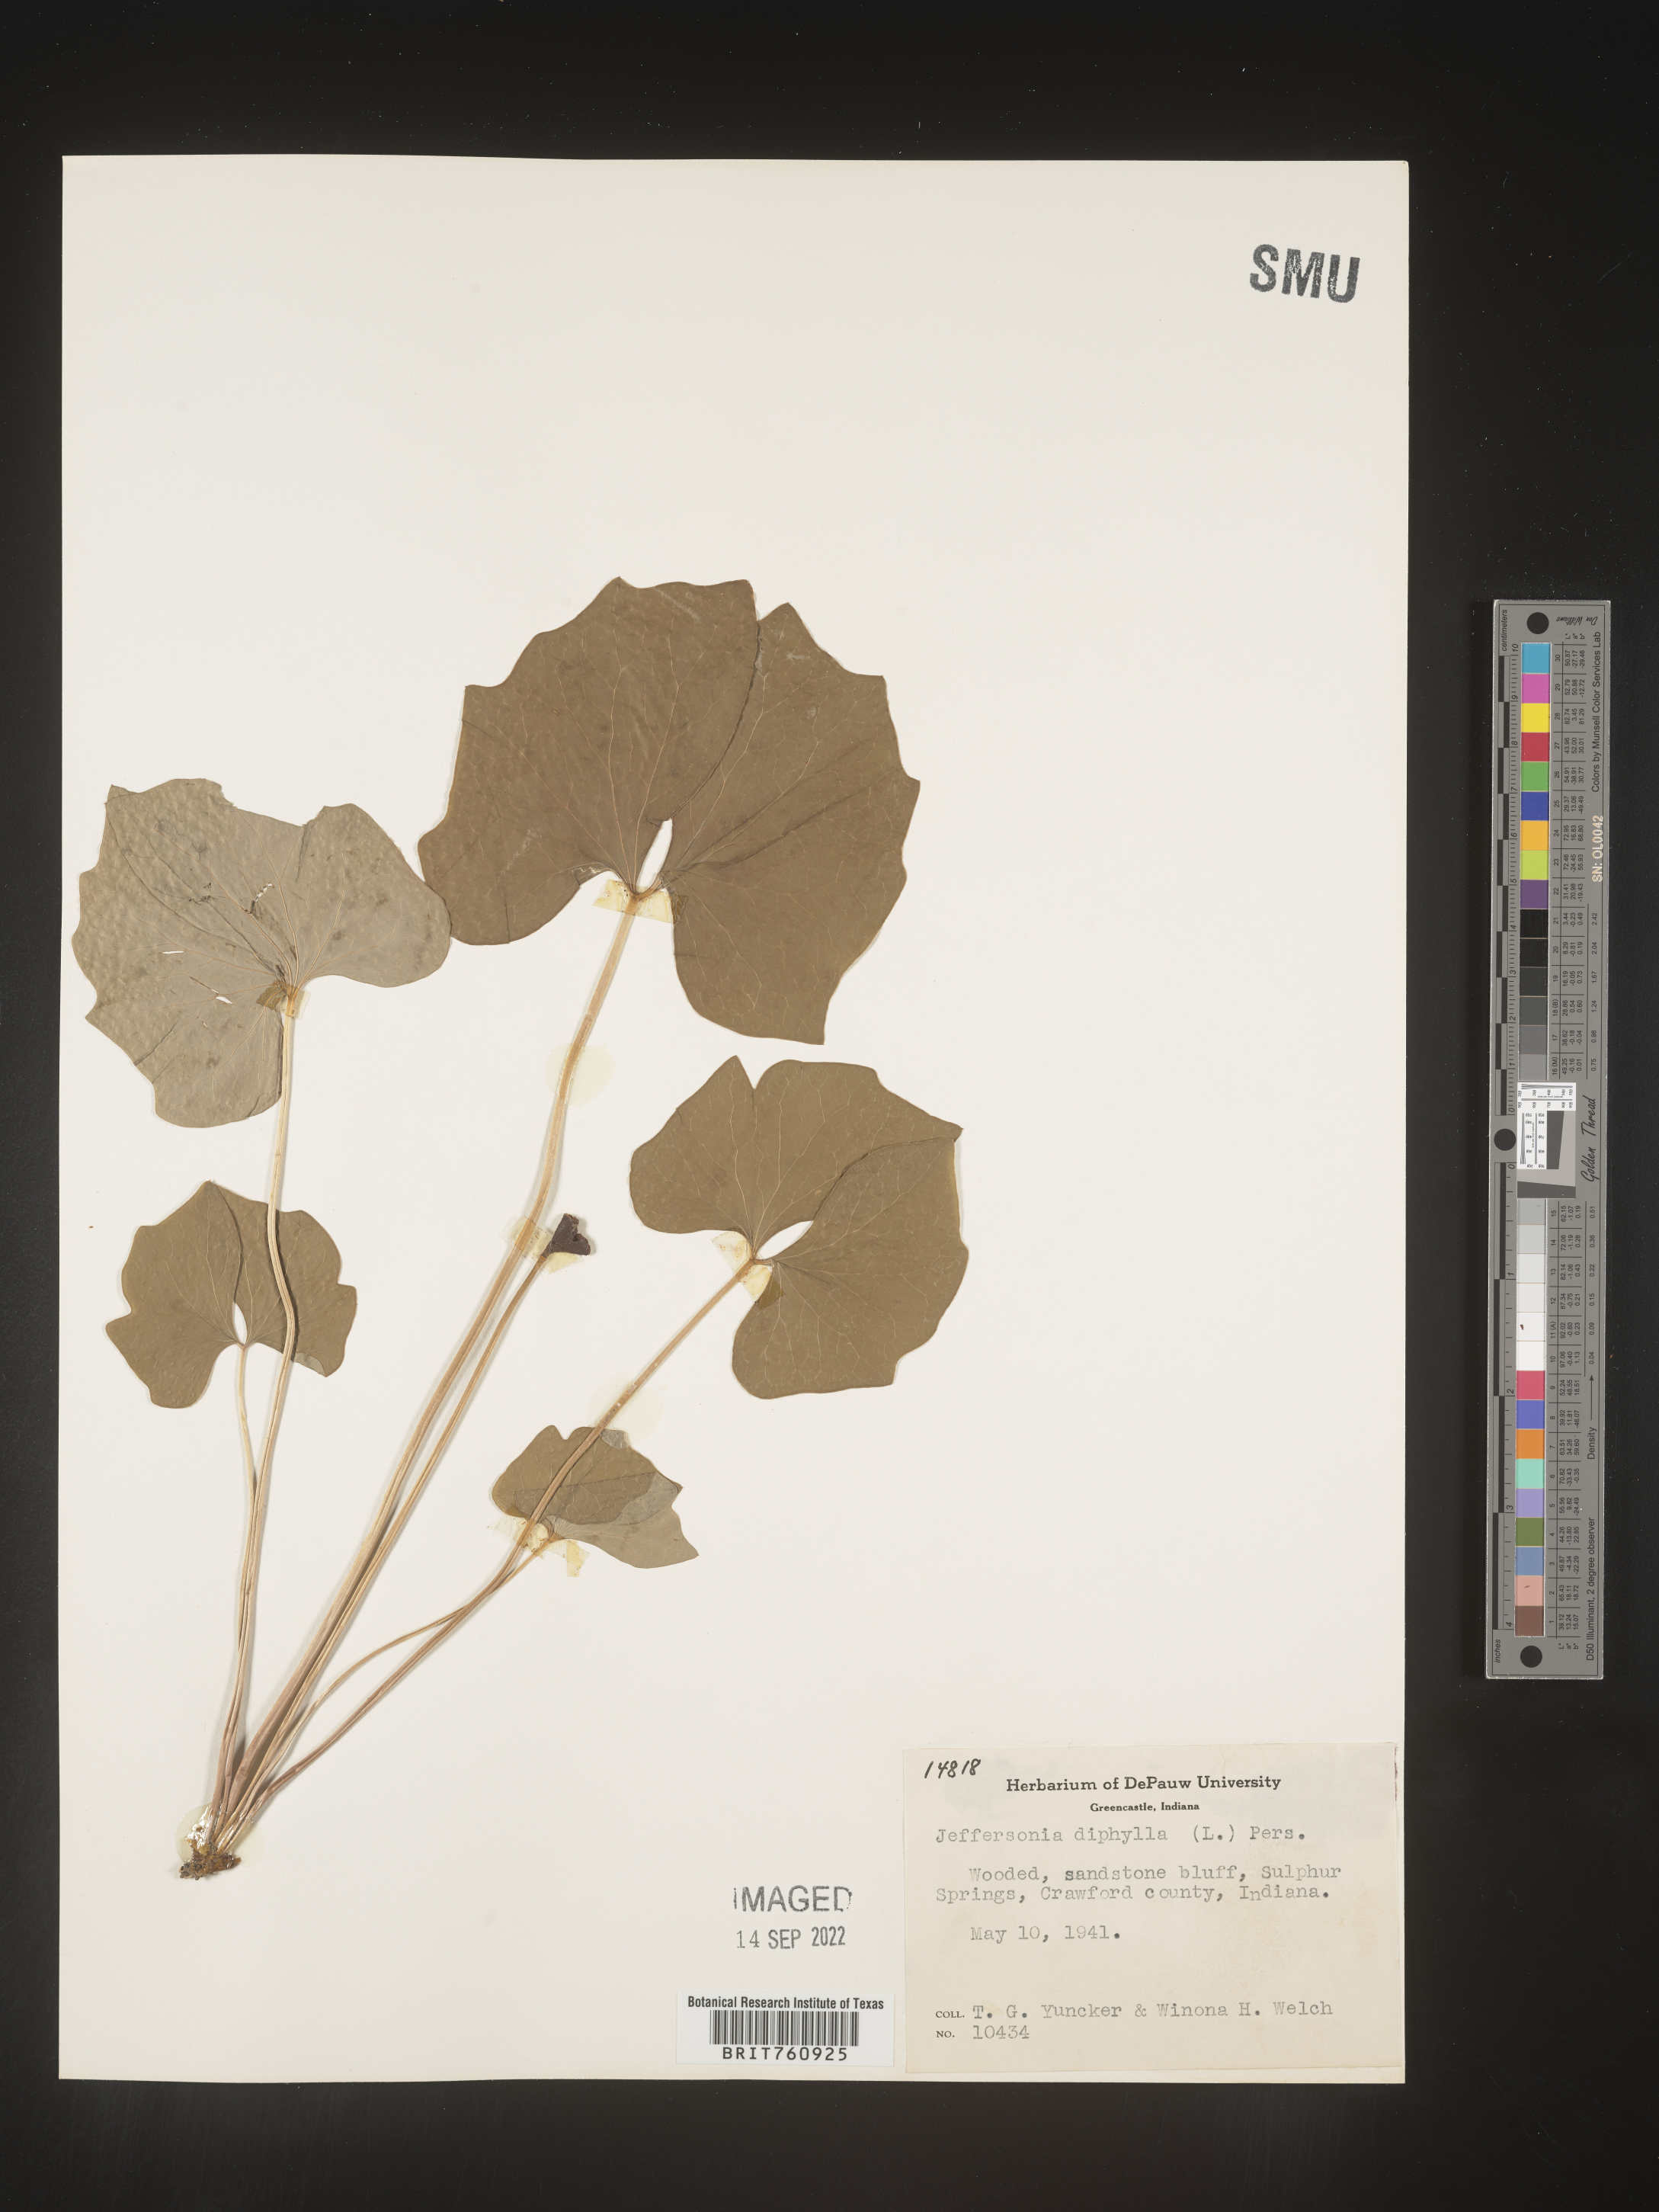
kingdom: Plantae
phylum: Tracheophyta
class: Magnoliopsida
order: Ranunculales
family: Berberidaceae
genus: Jeffersonia
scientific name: Jeffersonia
